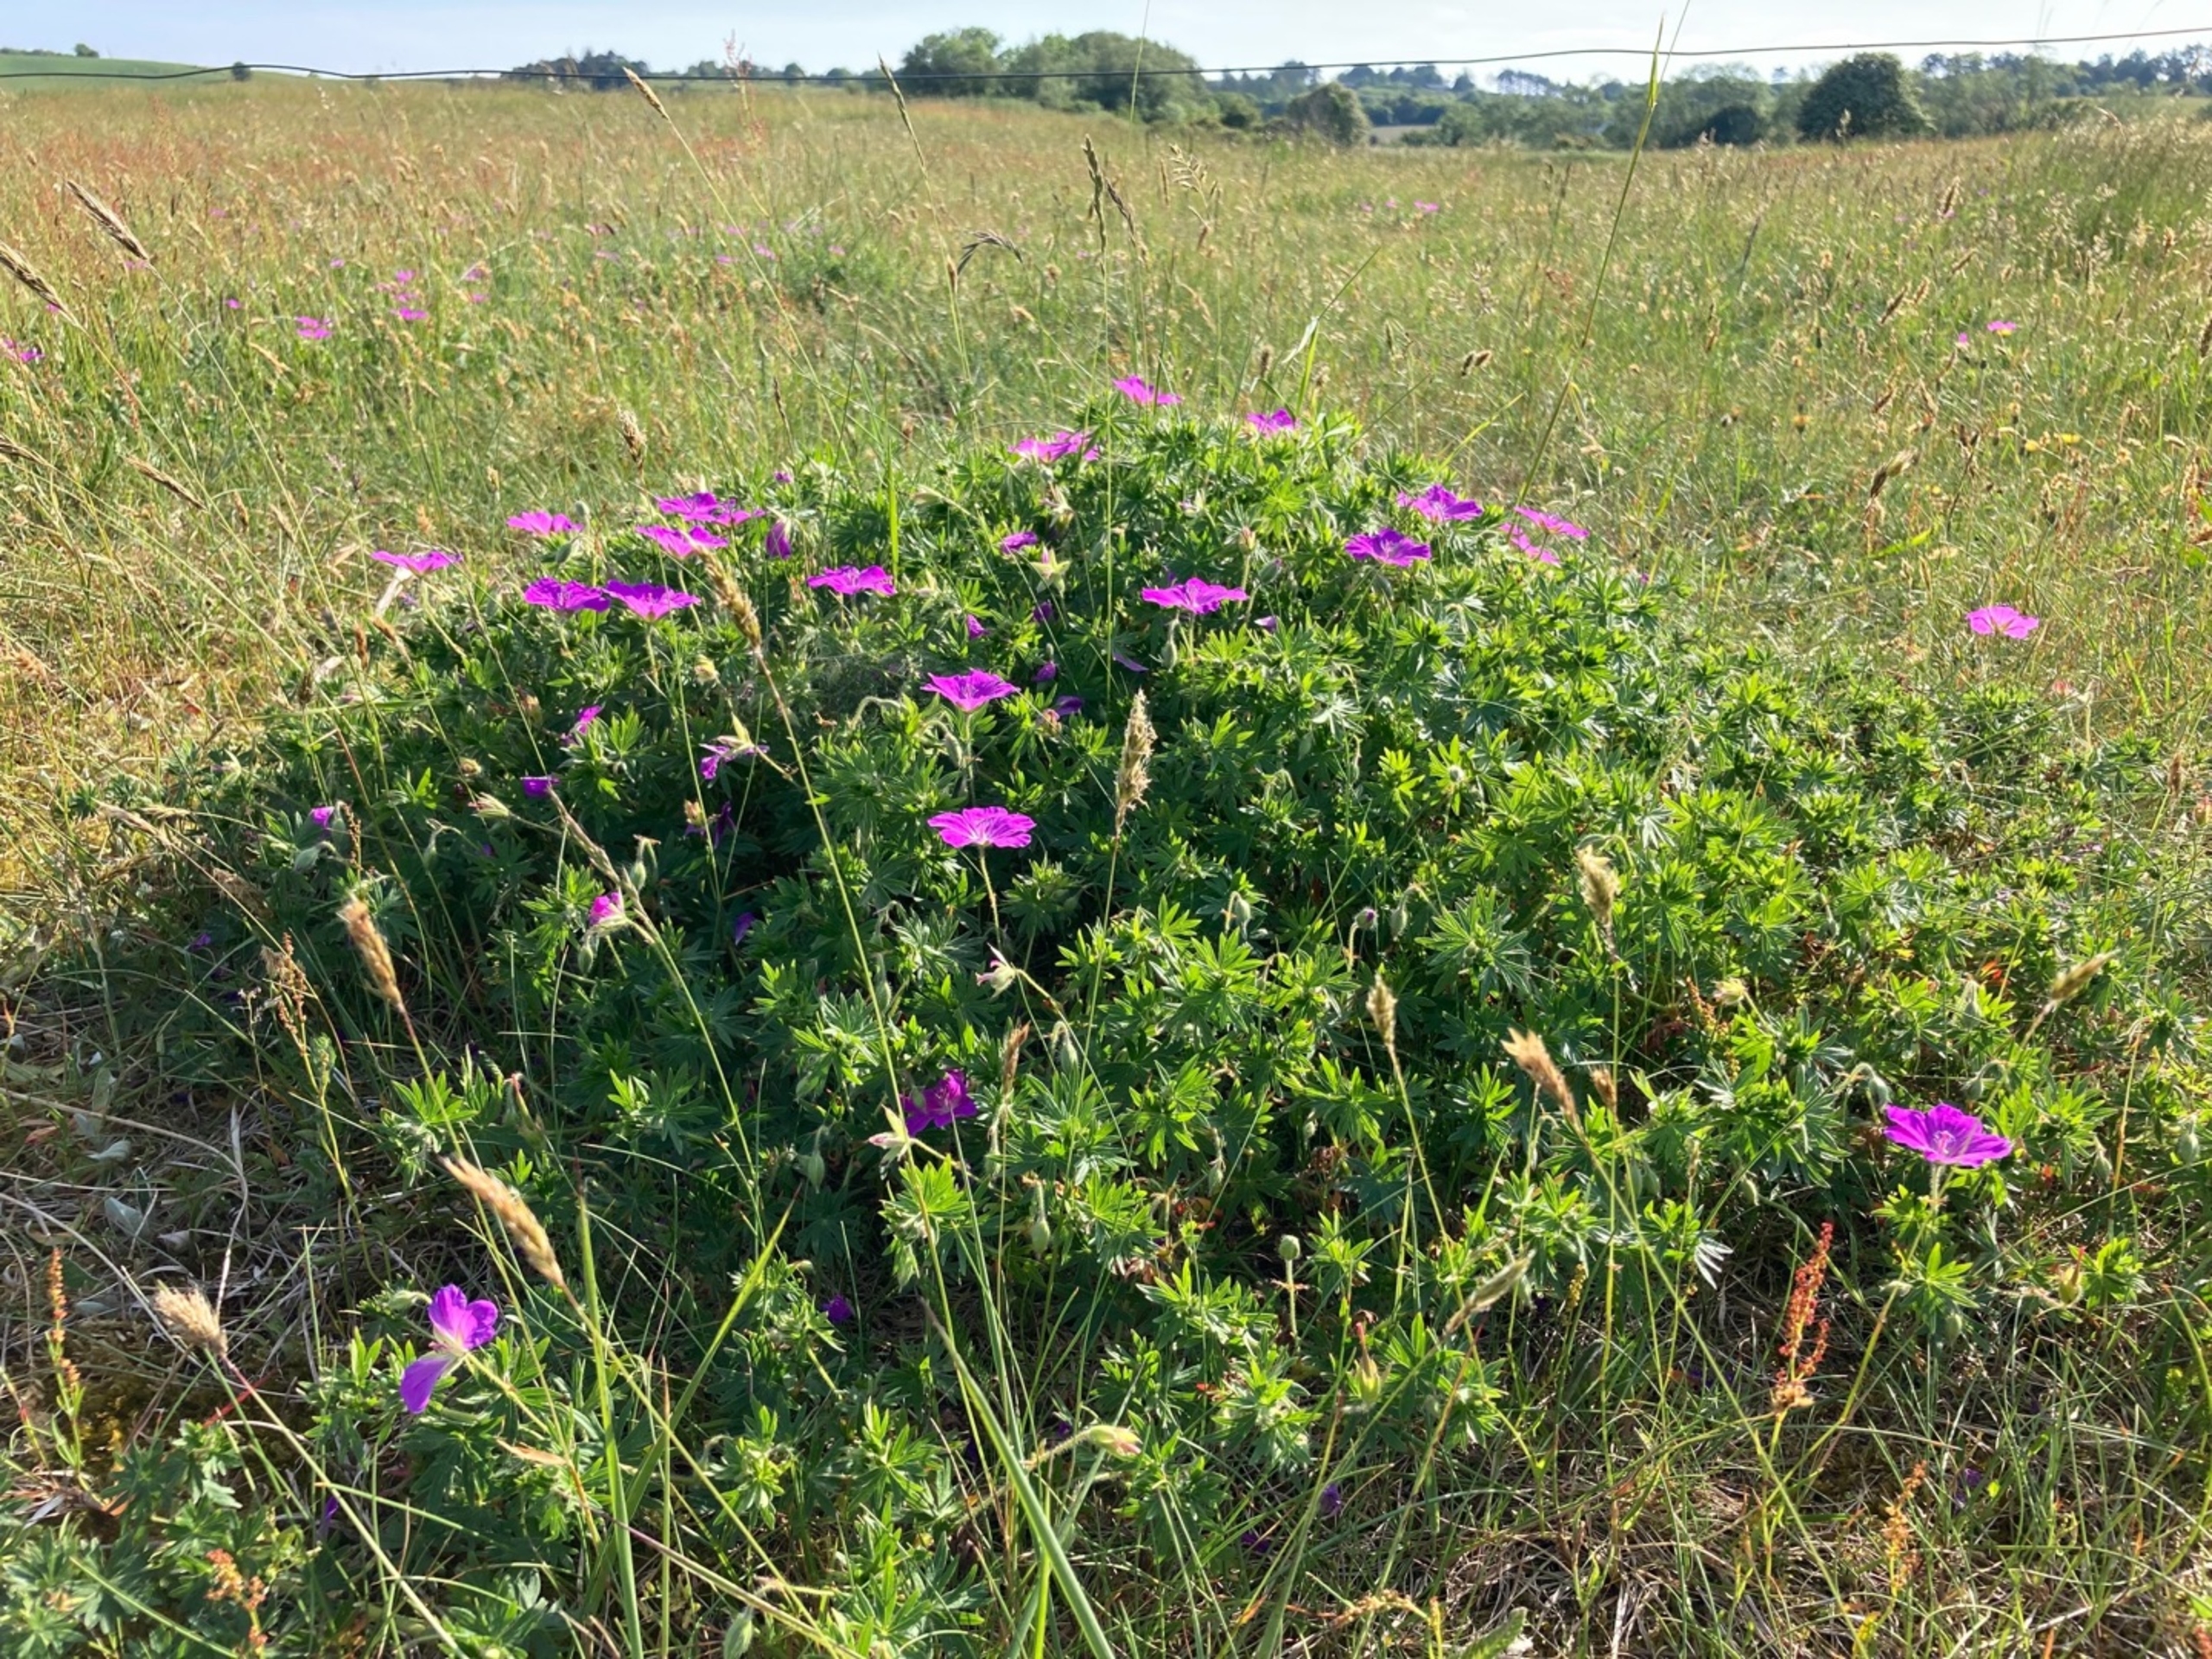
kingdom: Plantae
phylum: Tracheophyta
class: Magnoliopsida
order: Geraniales
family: Geraniaceae
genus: Geranium
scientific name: Geranium sanguineum
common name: Blodrød storkenæb
